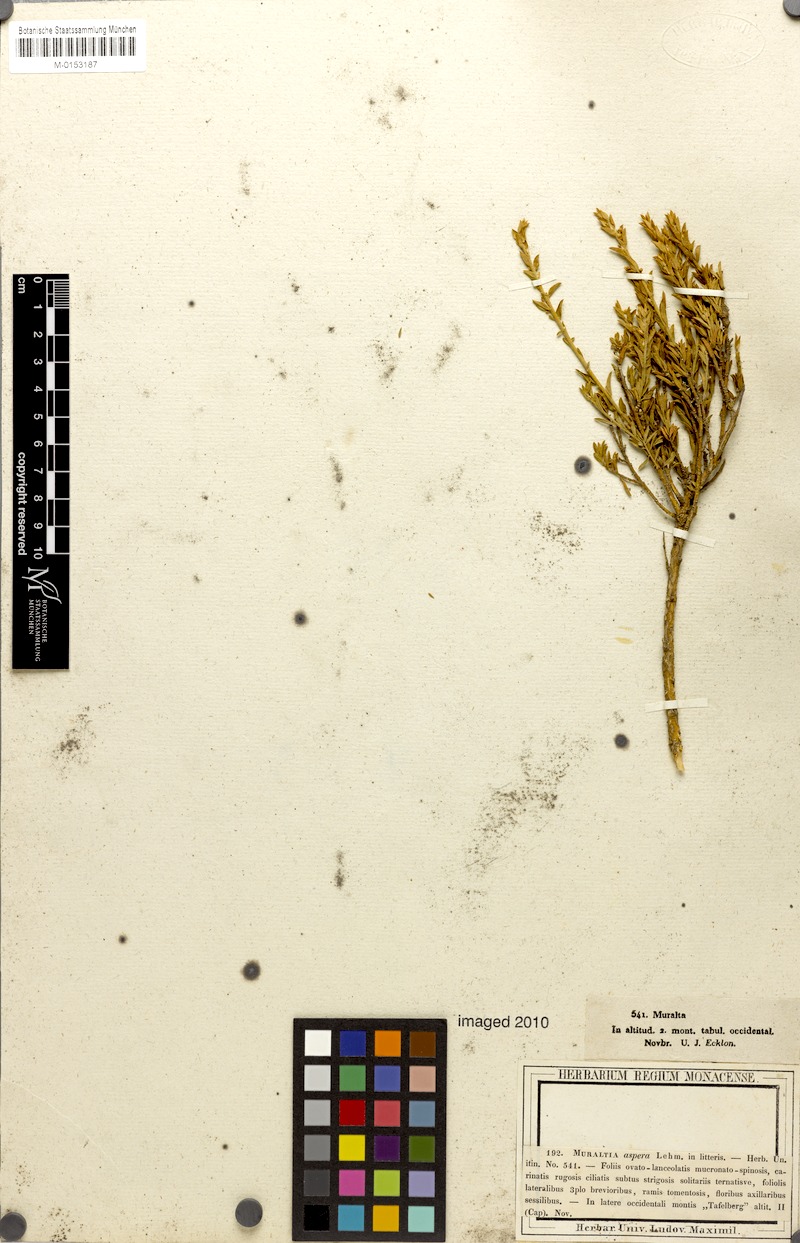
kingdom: Plantae
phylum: Tracheophyta
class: Magnoliopsida
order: Fabales
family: Polygalaceae
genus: Muraltia
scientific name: Muraltia thymifolia
